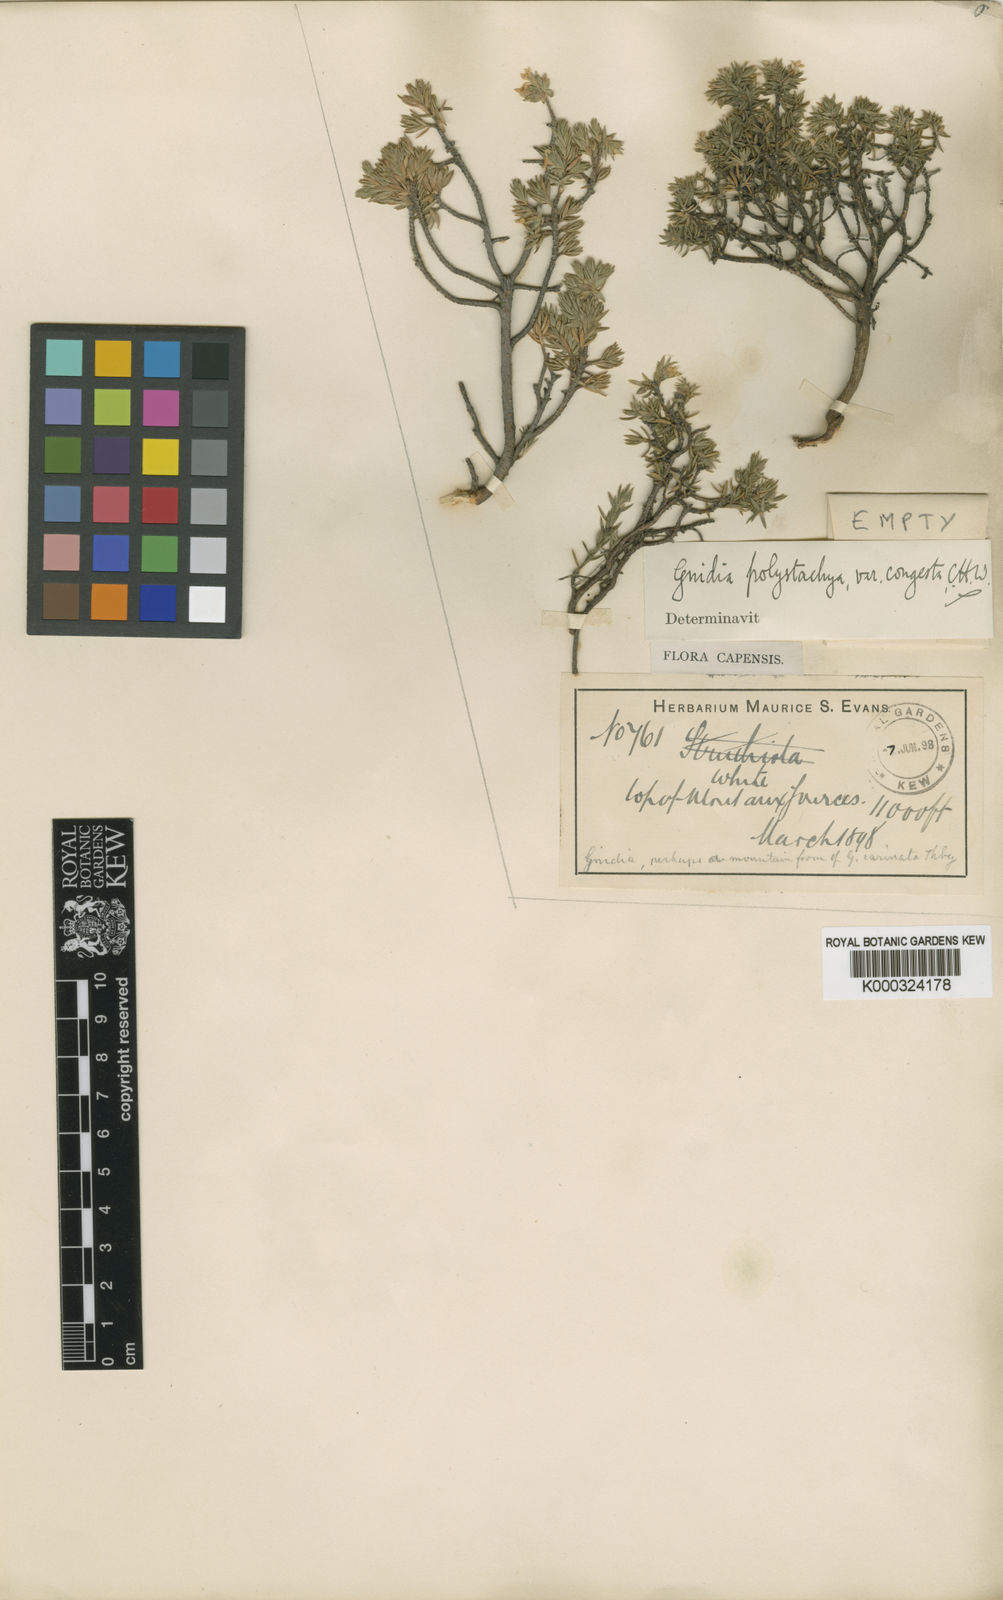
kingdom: Plantae
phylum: Tracheophyta
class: Magnoliopsida
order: Malvales
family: Thymelaeaceae
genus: Gnidia
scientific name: Gnidia polyantha
